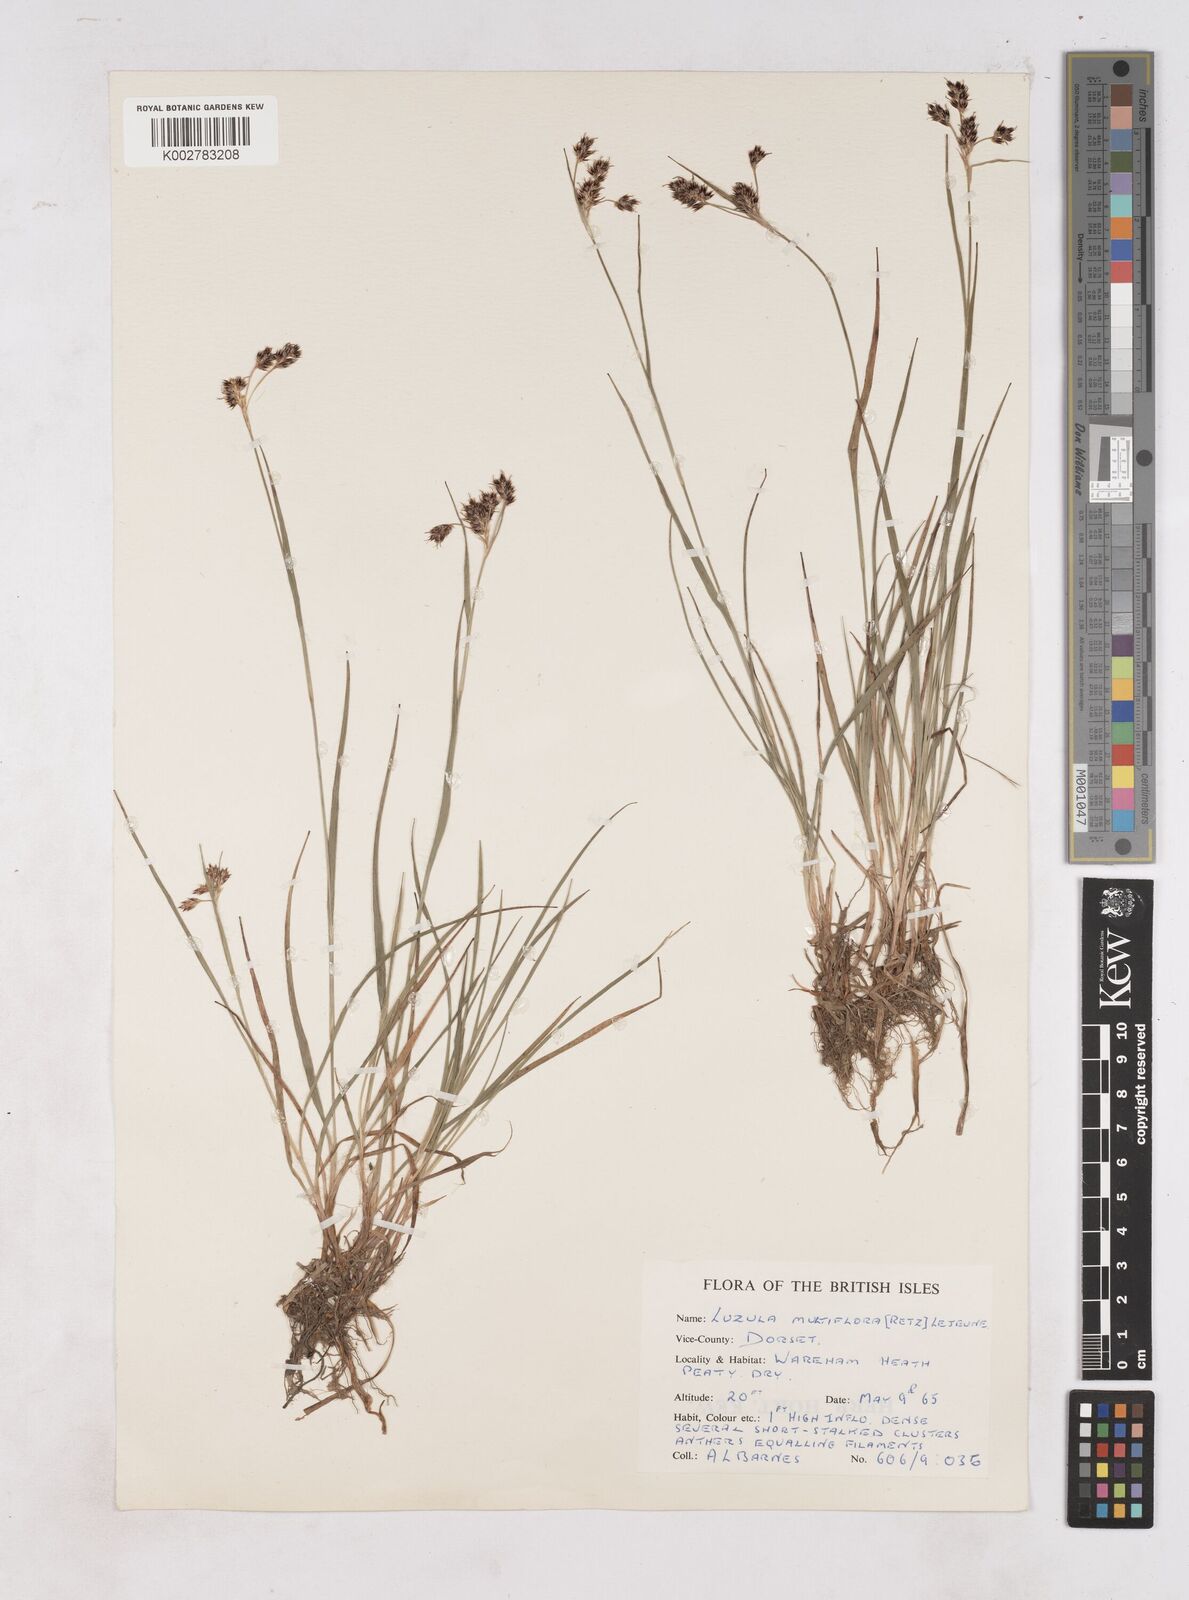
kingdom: Plantae
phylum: Tracheophyta
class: Liliopsida
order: Poales
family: Juncaceae
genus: Luzula
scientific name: Luzula multiflora
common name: Heath wood-rush
